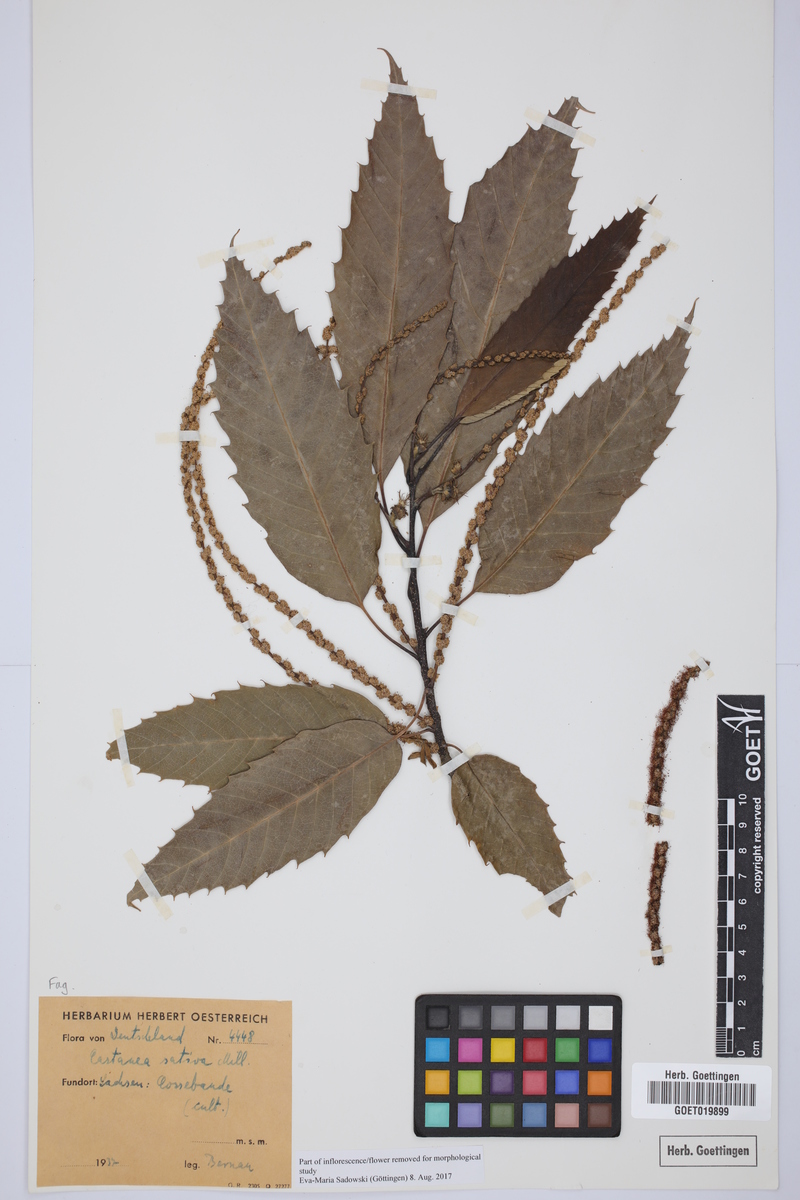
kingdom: Plantae
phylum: Tracheophyta
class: Magnoliopsida
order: Fagales
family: Fagaceae
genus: Castanea
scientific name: Castanea sativa
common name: Sweet chestnut
